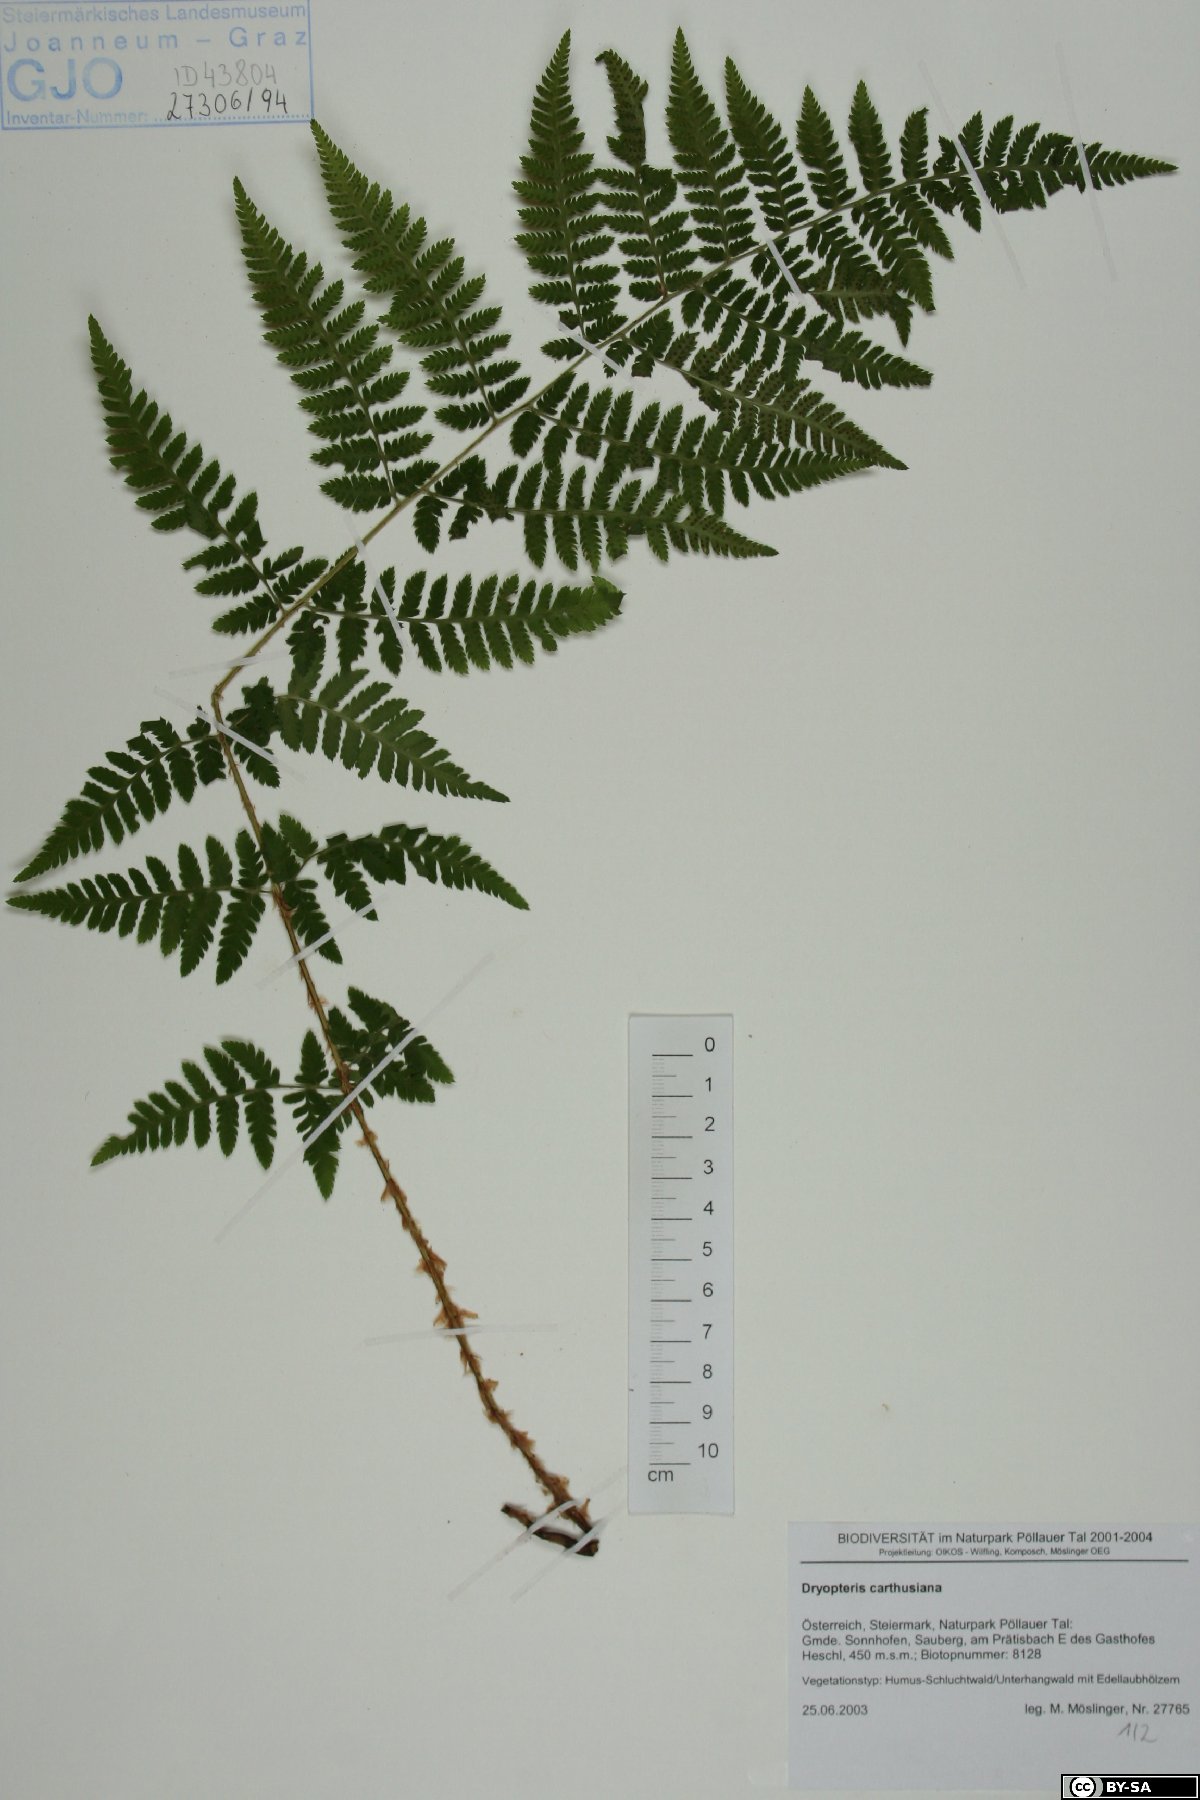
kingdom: Plantae
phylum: Tracheophyta
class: Polypodiopsida
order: Polypodiales
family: Dryopteridaceae
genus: Dryopteris
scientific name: Dryopteris carthusiana
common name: Narrow buckler-fern
